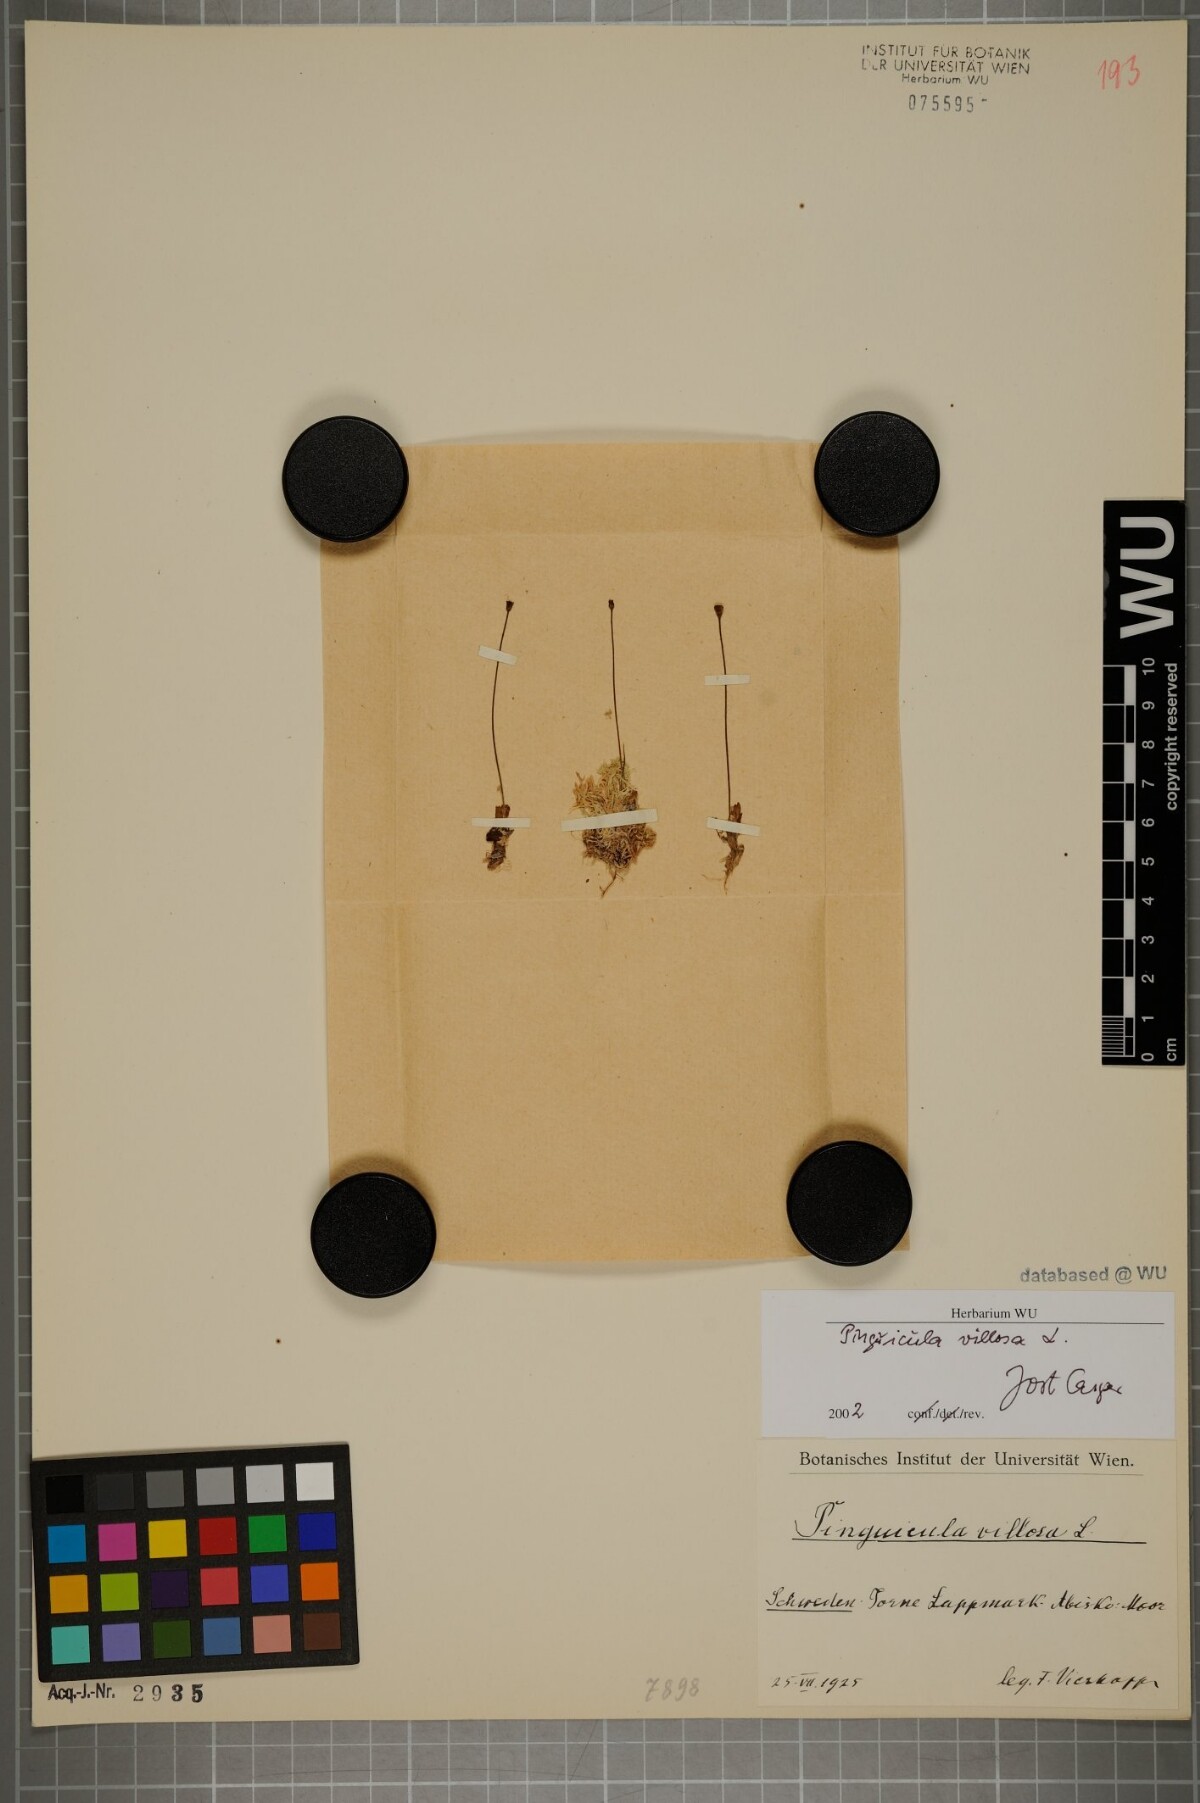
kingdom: Plantae
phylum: Tracheophyta
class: Magnoliopsida
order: Lamiales
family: Lentibulariaceae
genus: Pinguicula
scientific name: Pinguicula villosa
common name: Hairy butterwort
